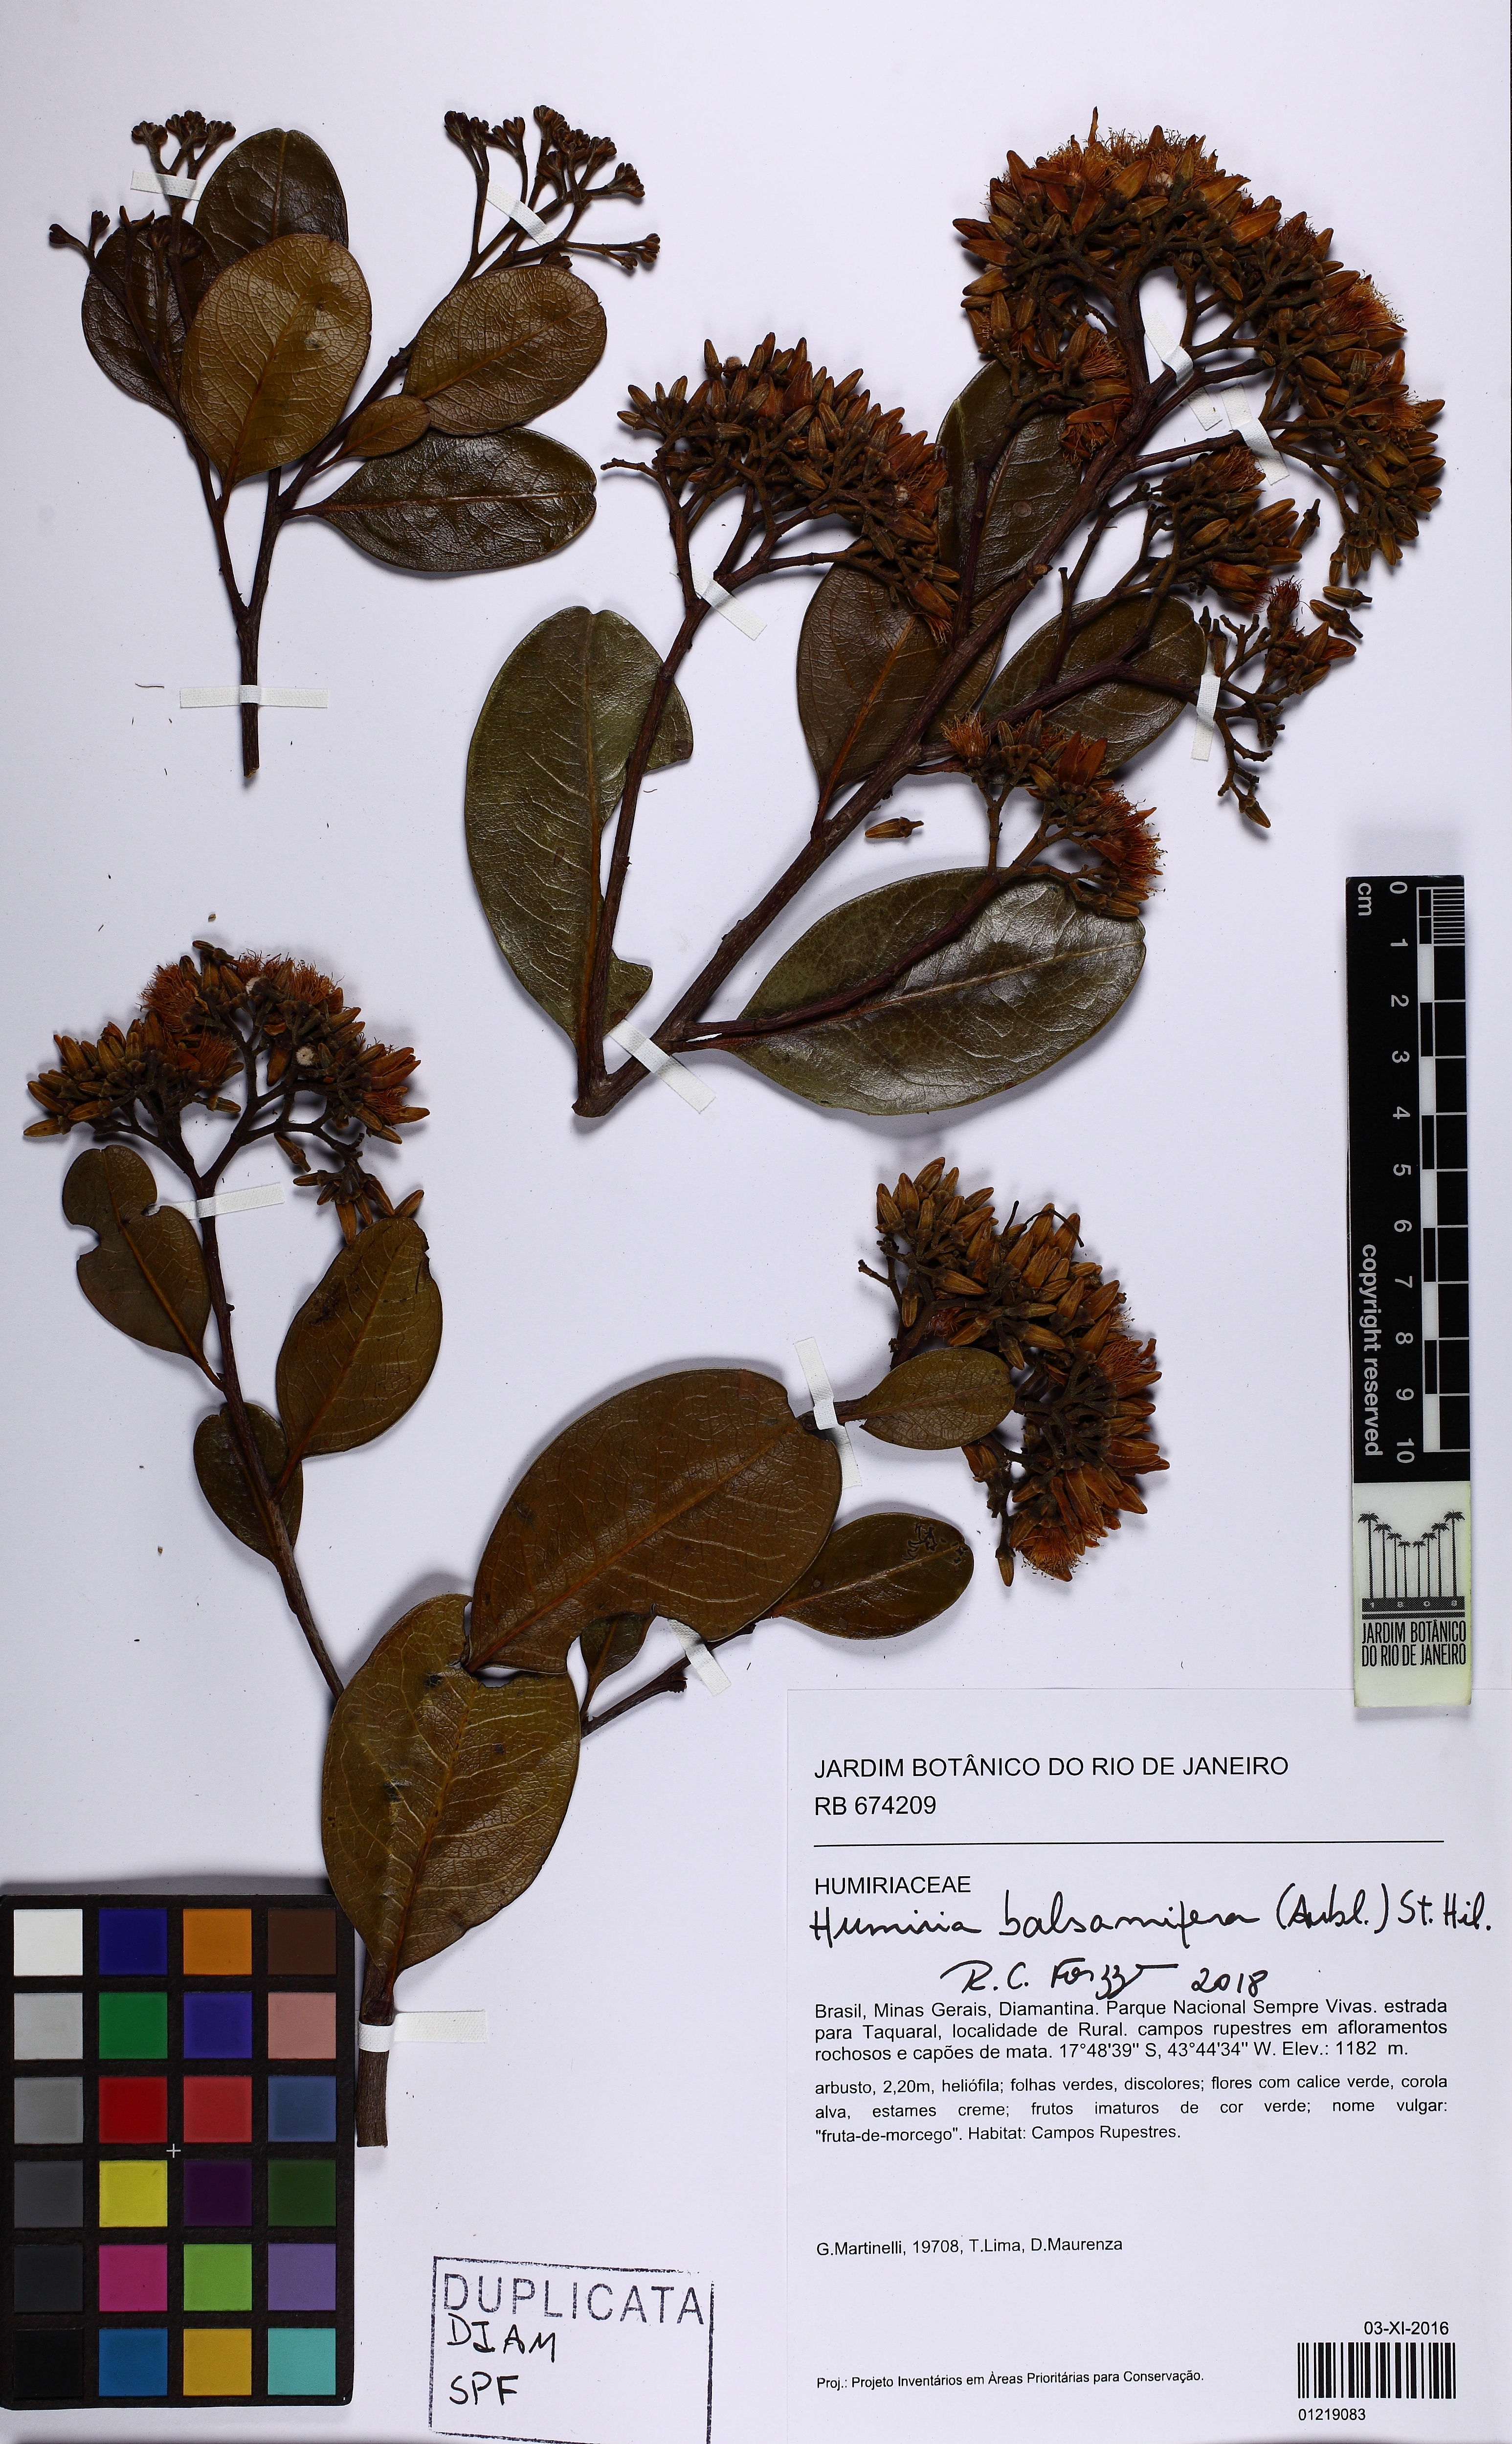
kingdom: Plantae
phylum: Tracheophyta
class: Magnoliopsida
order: Malpighiales
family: Humiriaceae
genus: Humiria
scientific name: Humiria balsamifera
